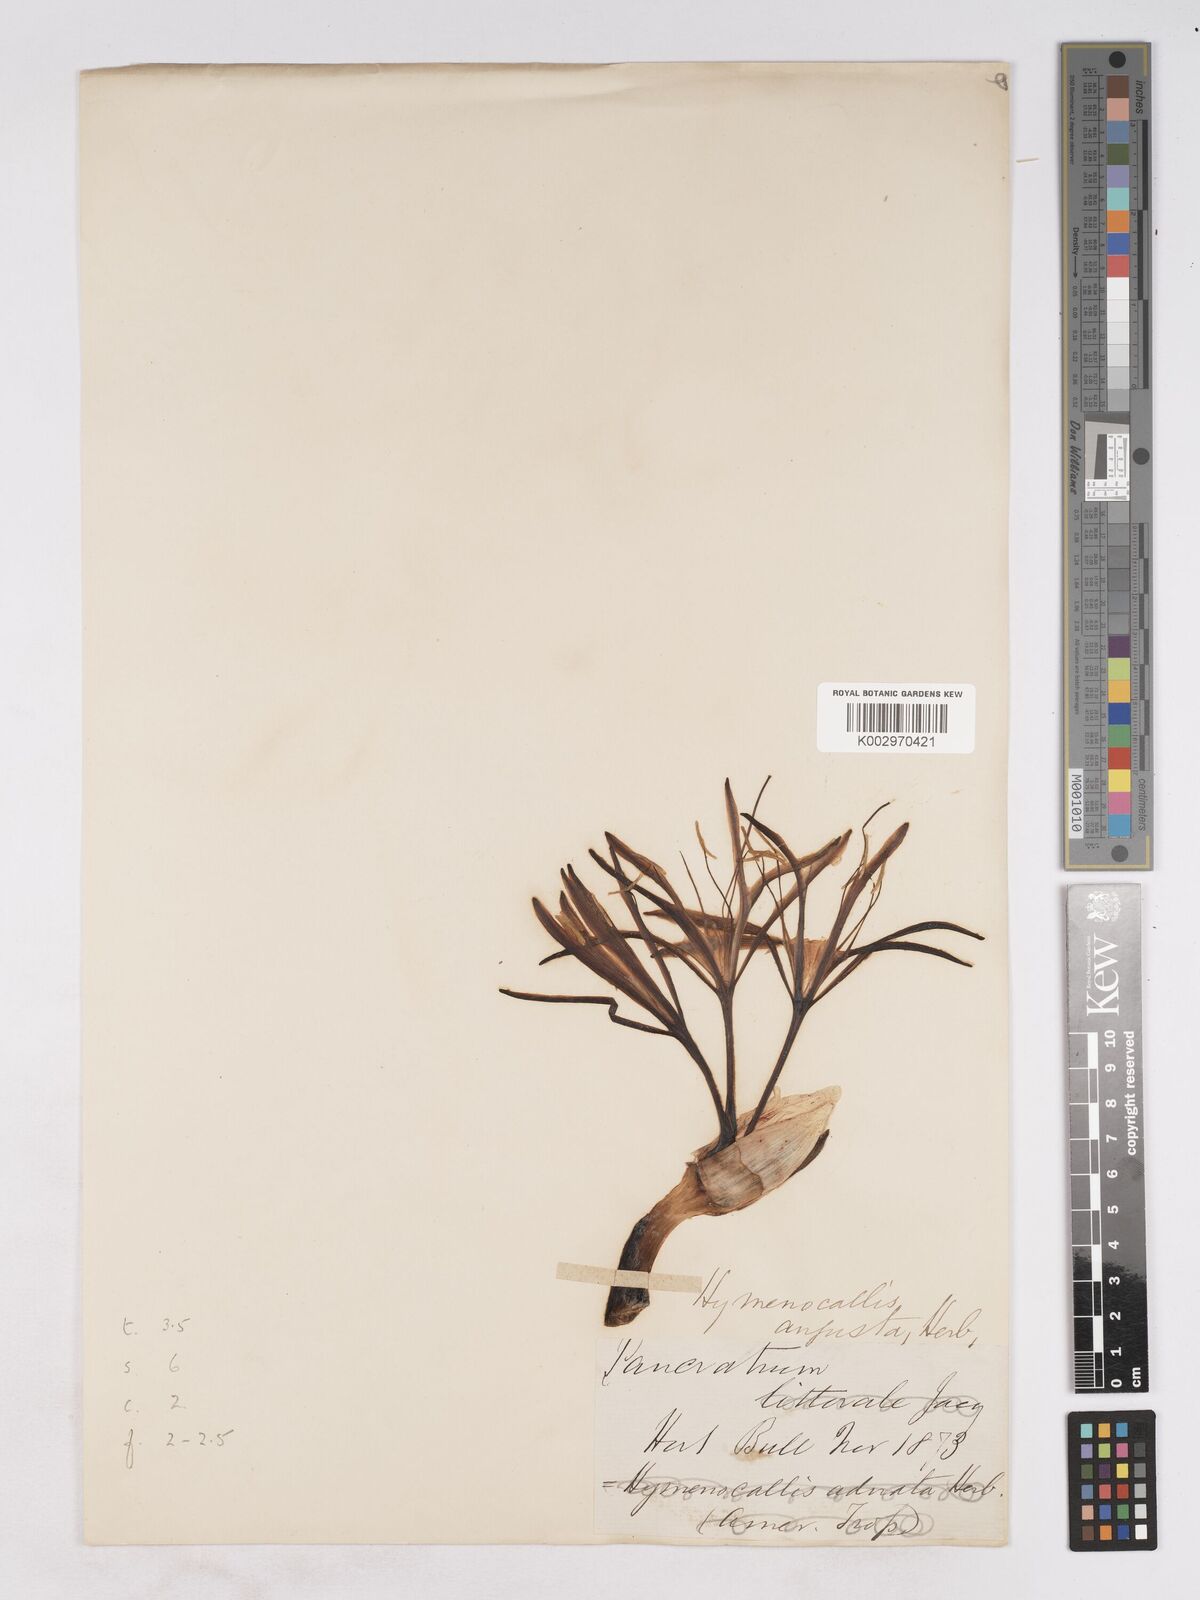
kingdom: Plantae
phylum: Tracheophyta
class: Liliopsida
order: Asparagales
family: Amaryllidaceae
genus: Hymenocallis
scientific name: Hymenocallis harrisiana
